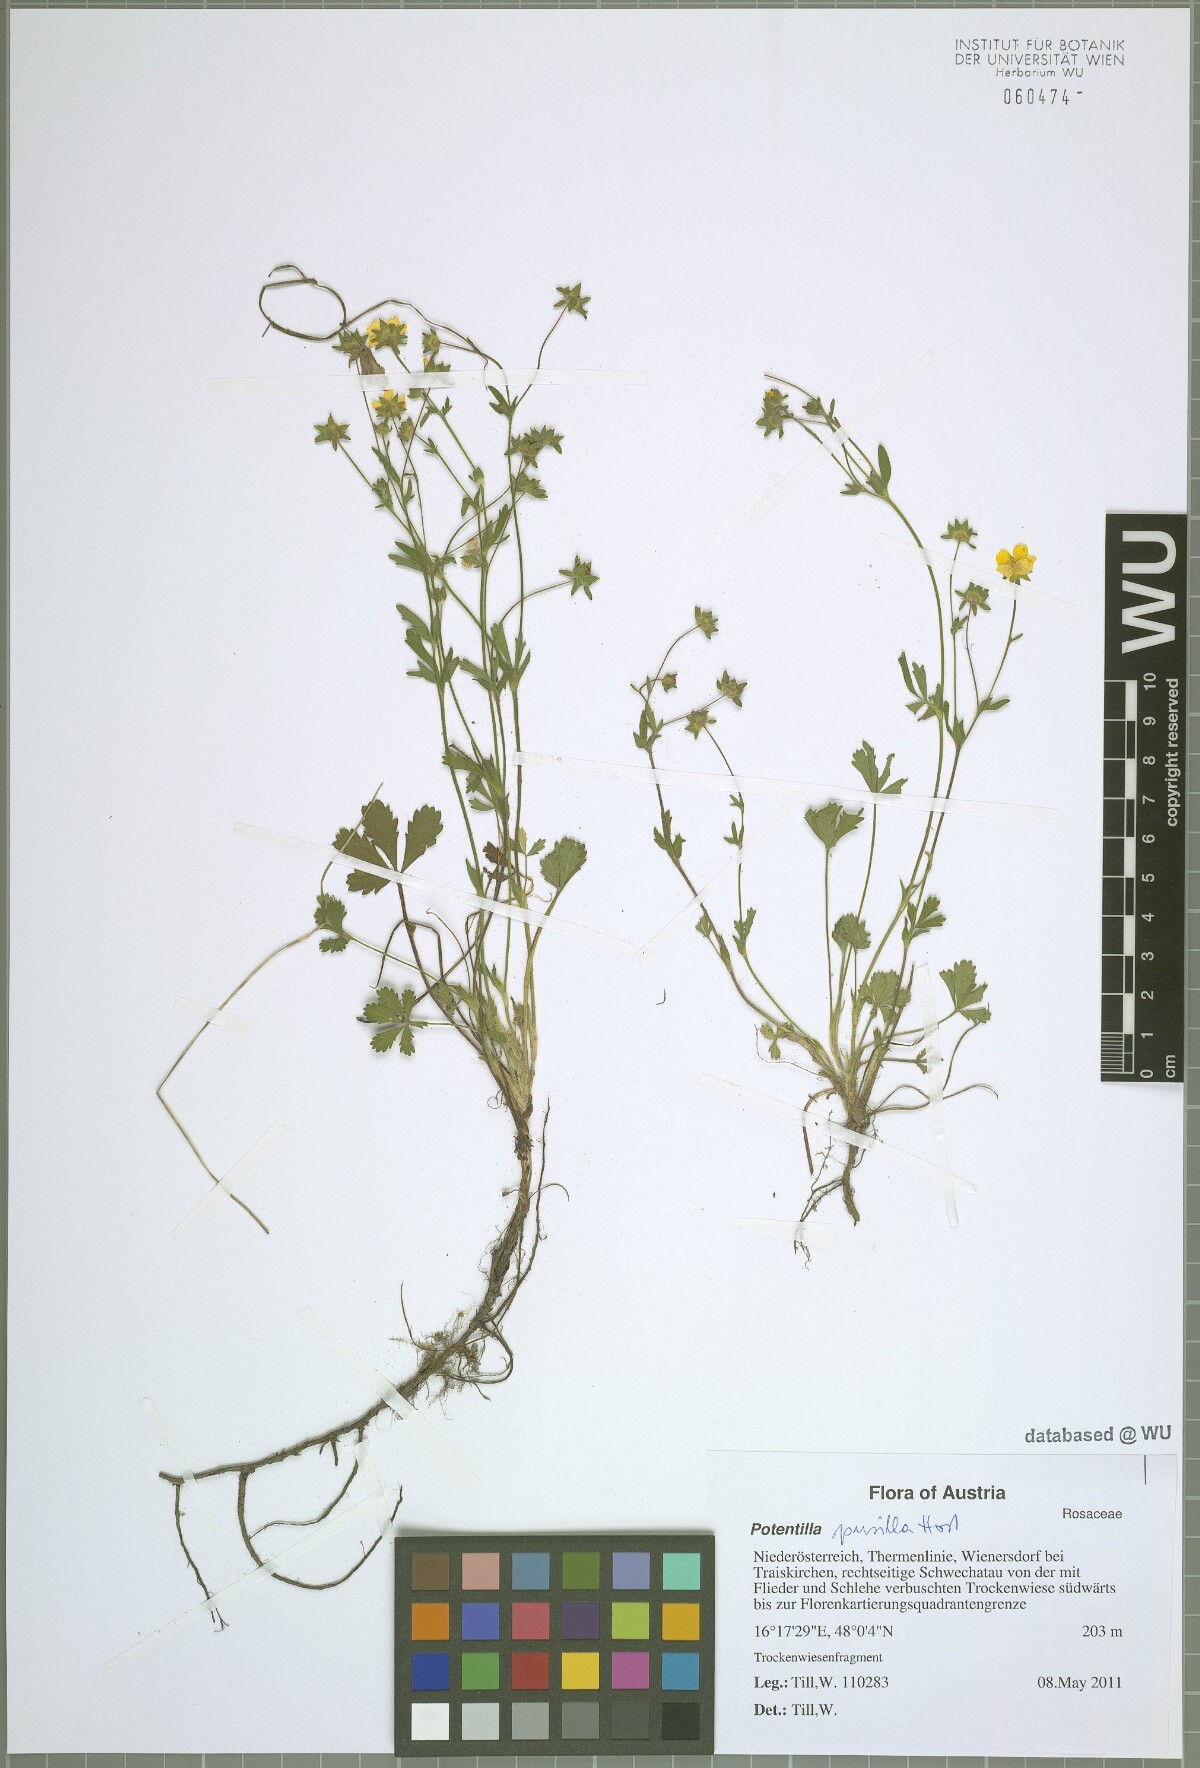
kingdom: Plantae
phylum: Tracheophyta
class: Magnoliopsida
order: Rosales
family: Rosaceae
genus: Potentilla
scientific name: Potentilla pusilla
